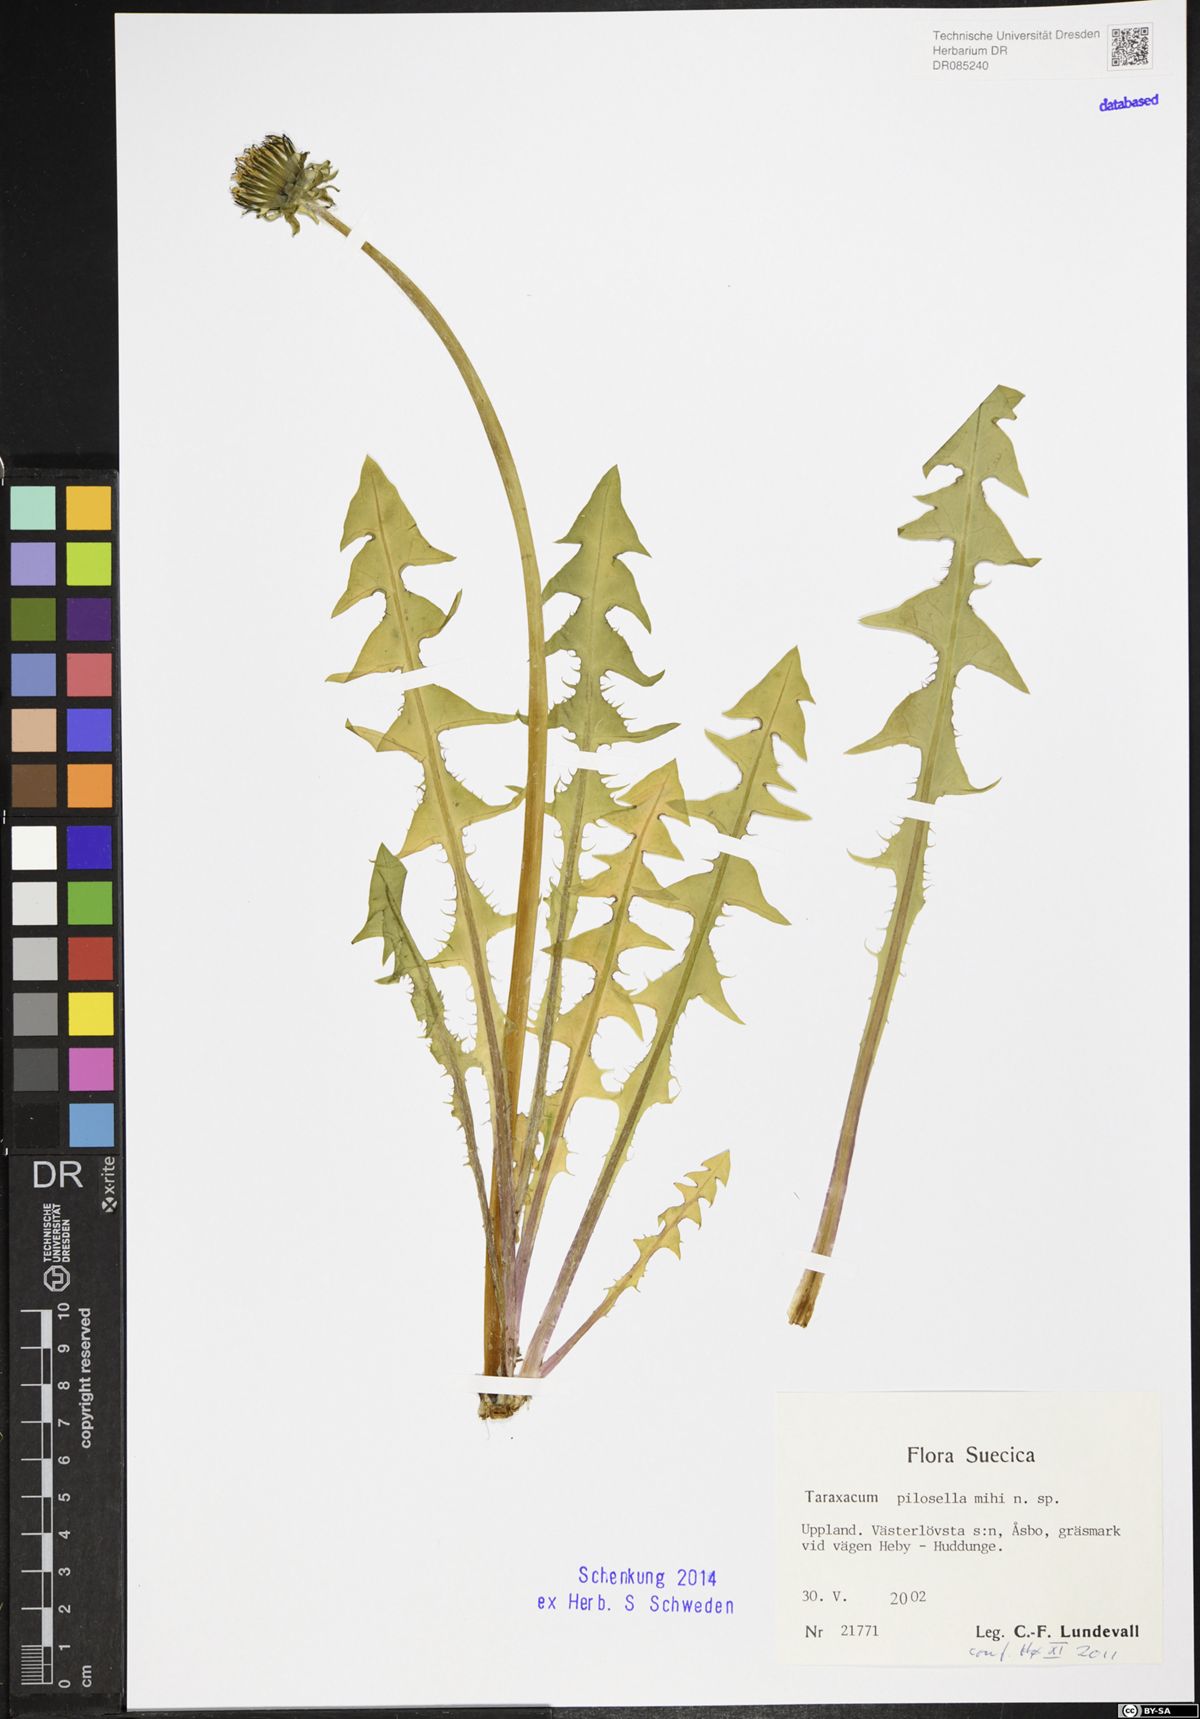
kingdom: Plantae
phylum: Tracheophyta
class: Magnoliopsida
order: Asterales
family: Asteraceae
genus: Taraxacum
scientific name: Taraxacum pilosella
